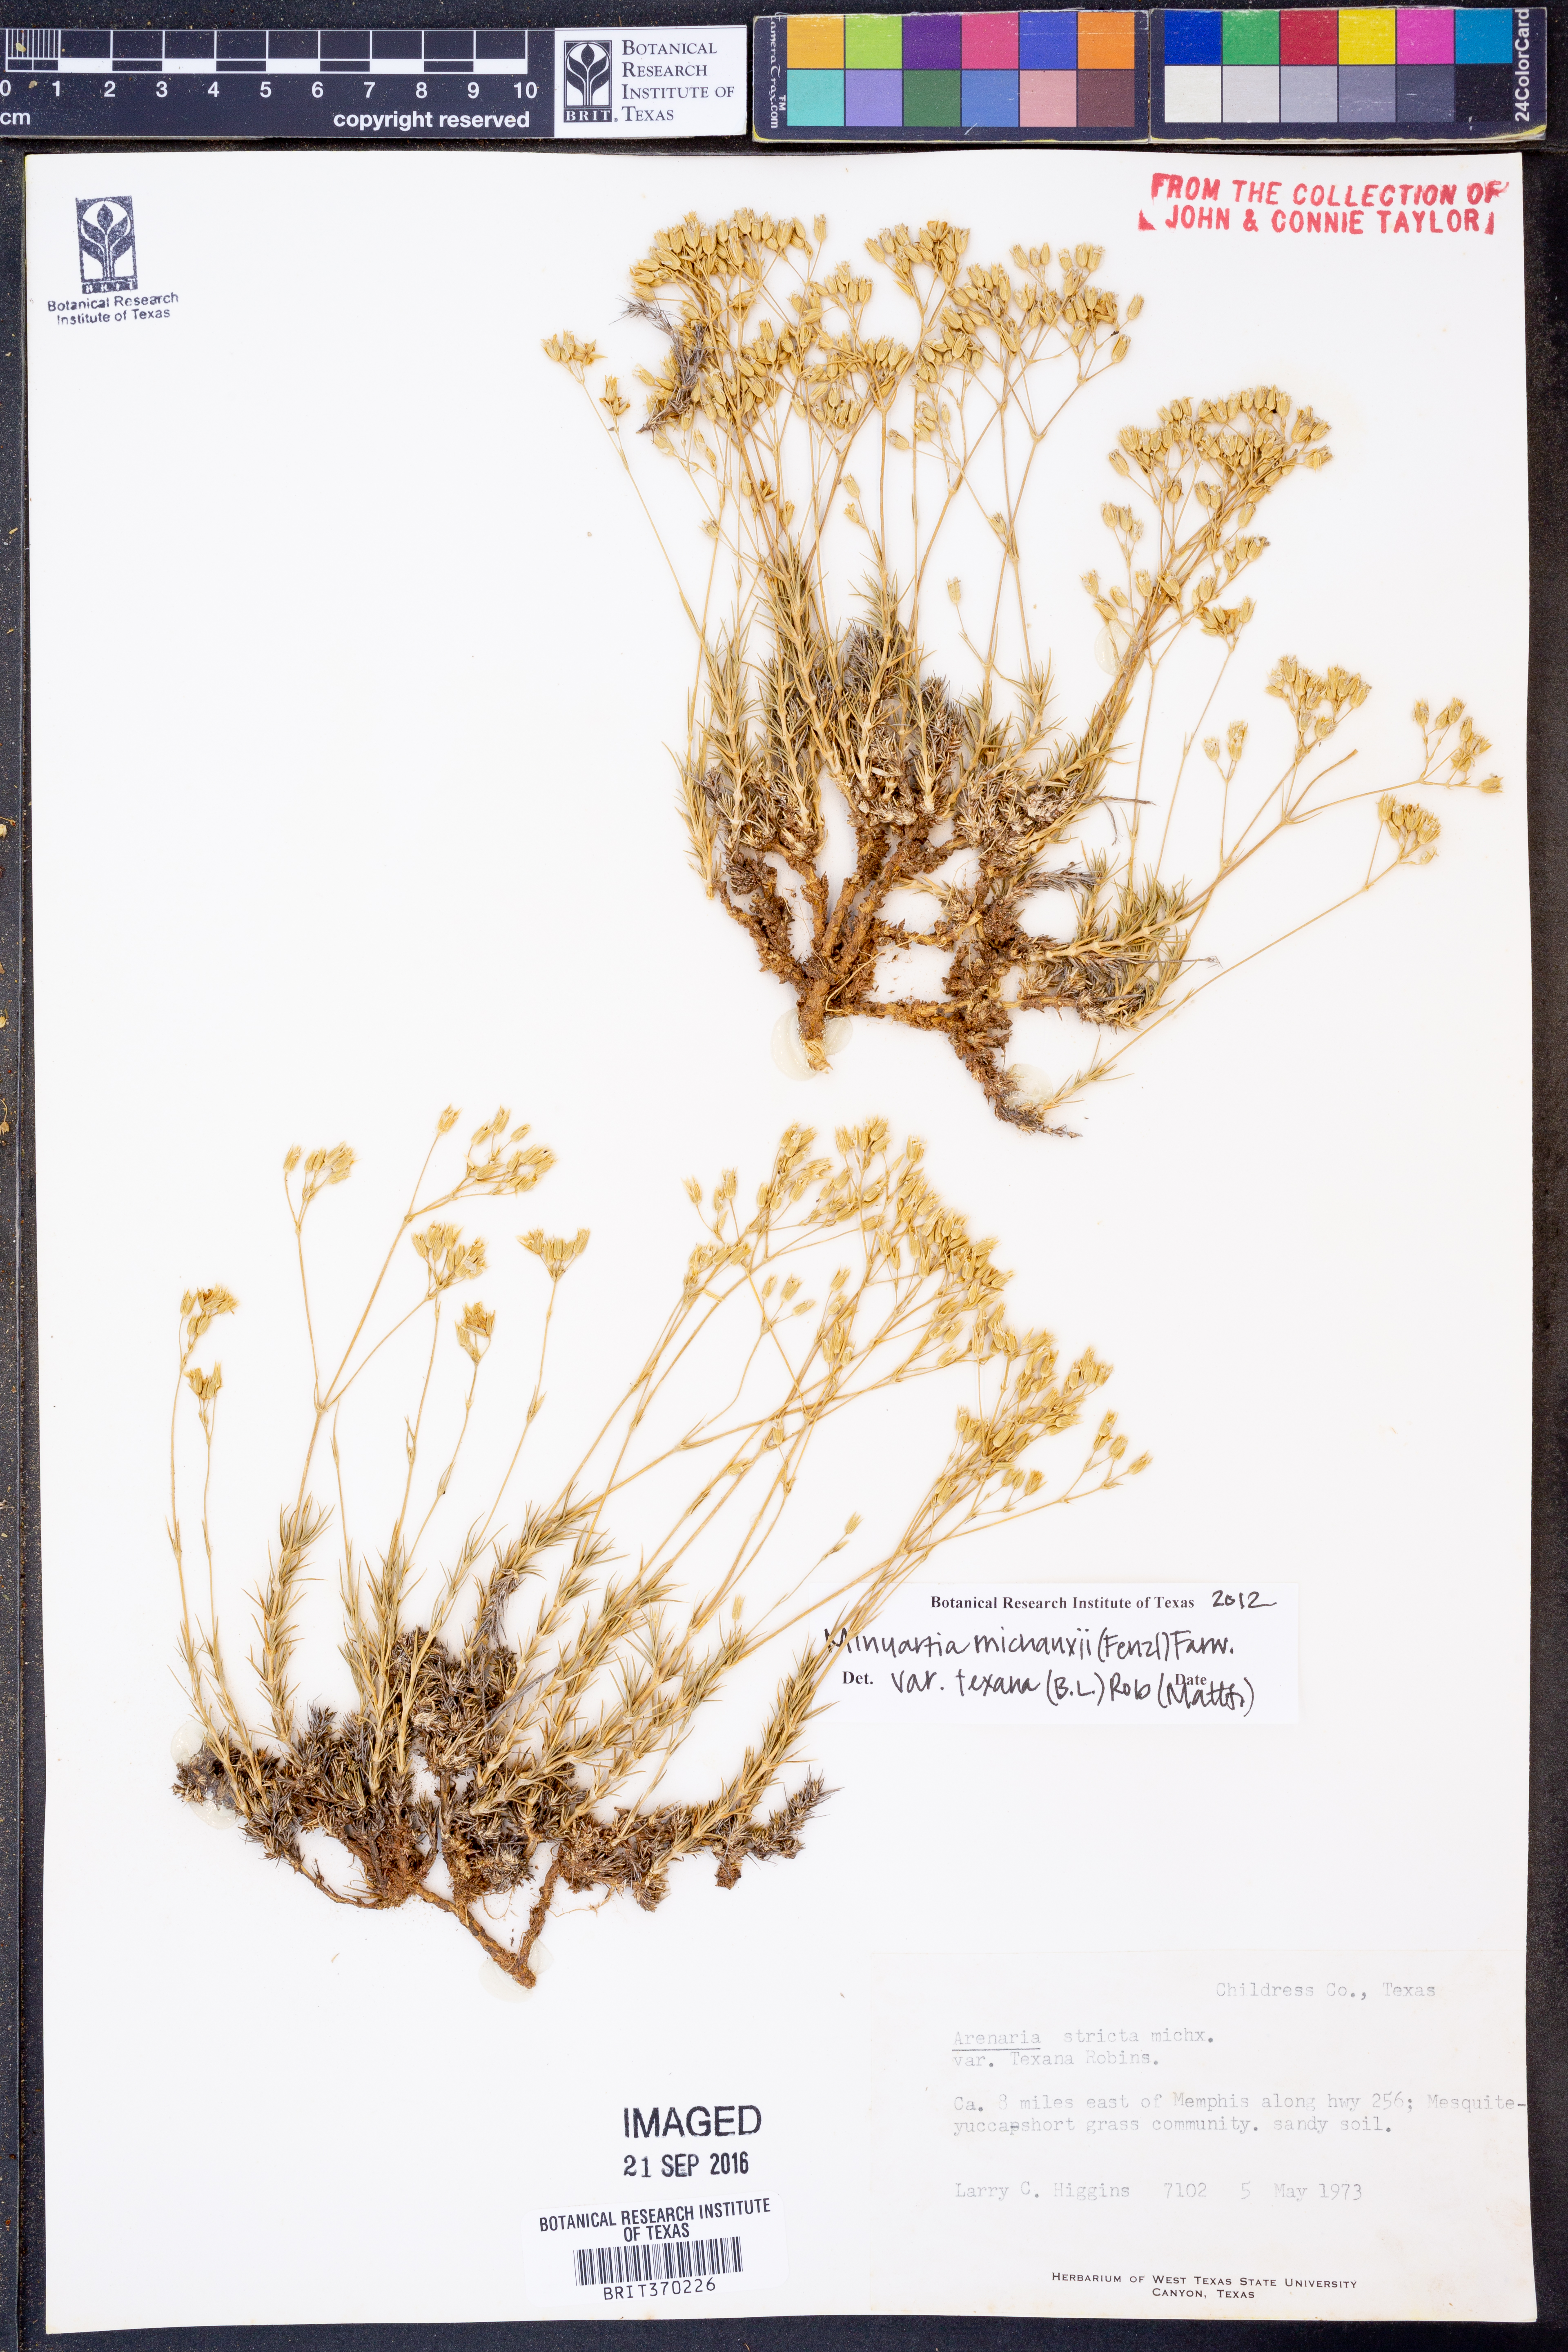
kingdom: Plantae
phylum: Tracheophyta
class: Magnoliopsida
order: Caryophyllales
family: Caryophyllaceae
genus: Sabulina
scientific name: Sabulina texana
